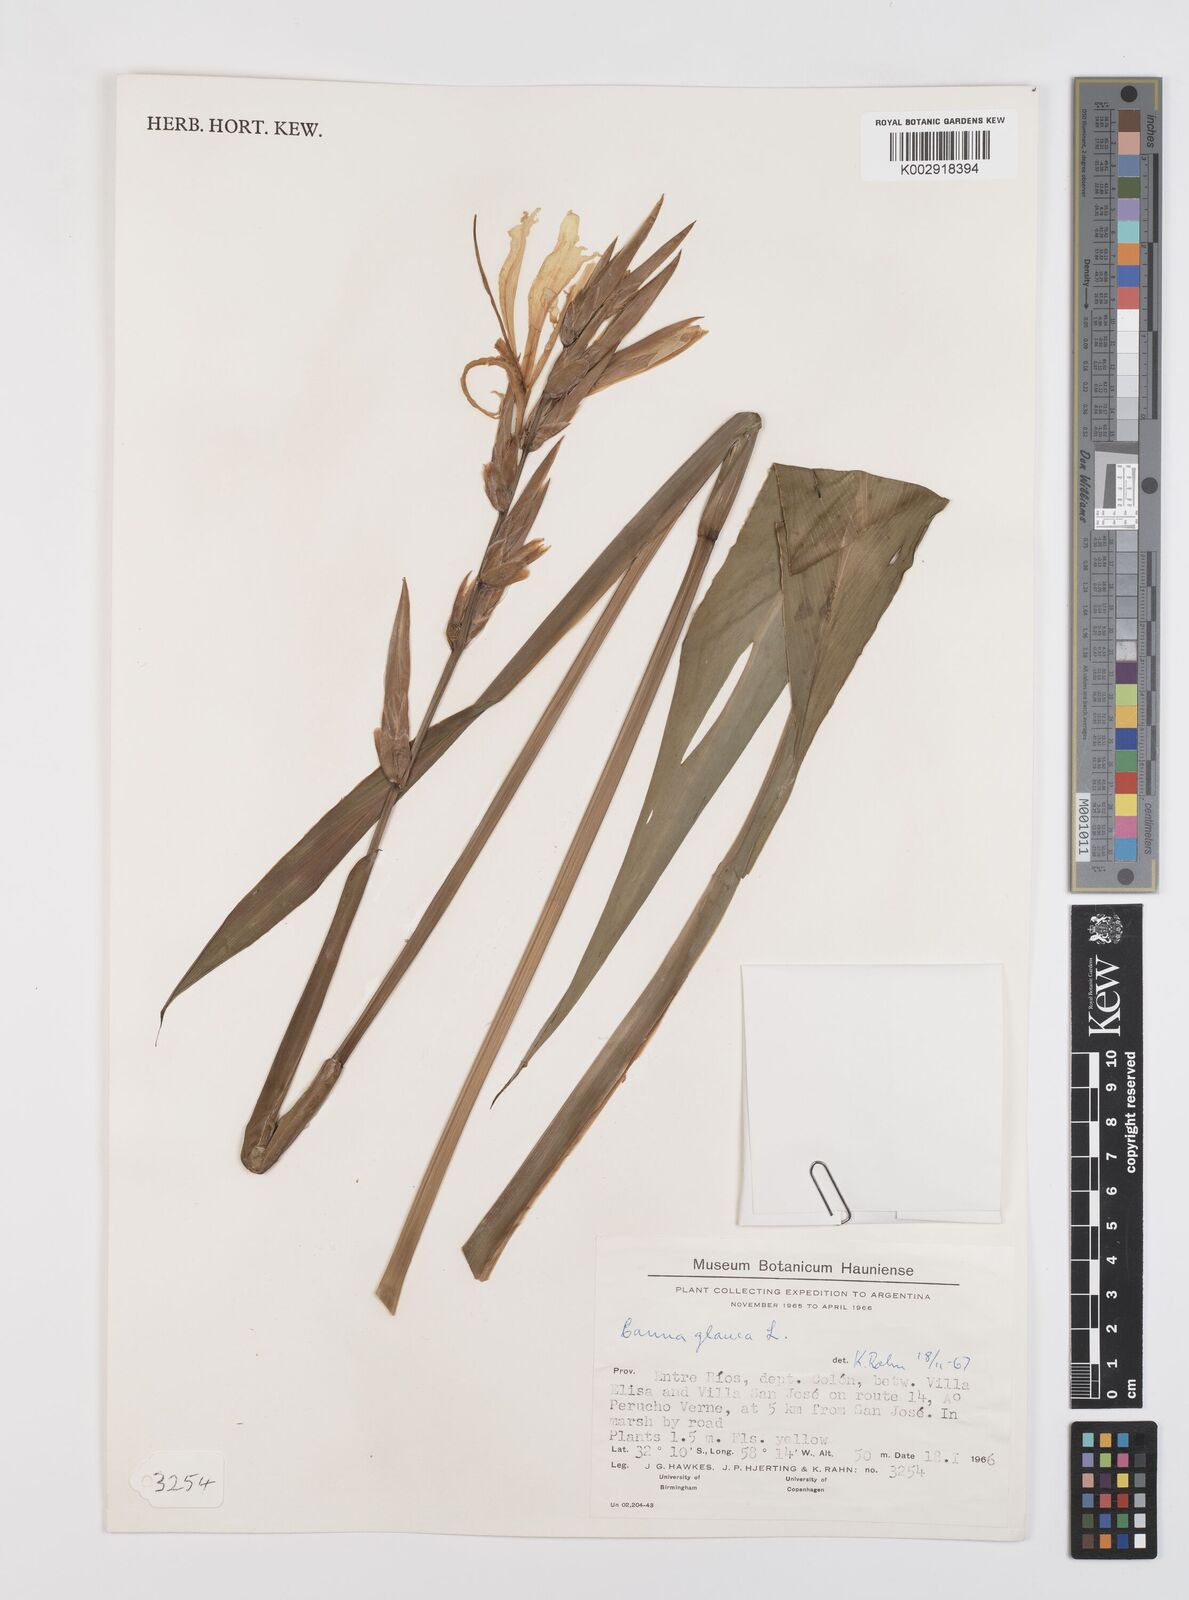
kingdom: Plantae
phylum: Tracheophyta
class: Liliopsida
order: Zingiberales
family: Cannaceae
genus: Canna
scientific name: Canna glauca
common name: Louisiana canna
